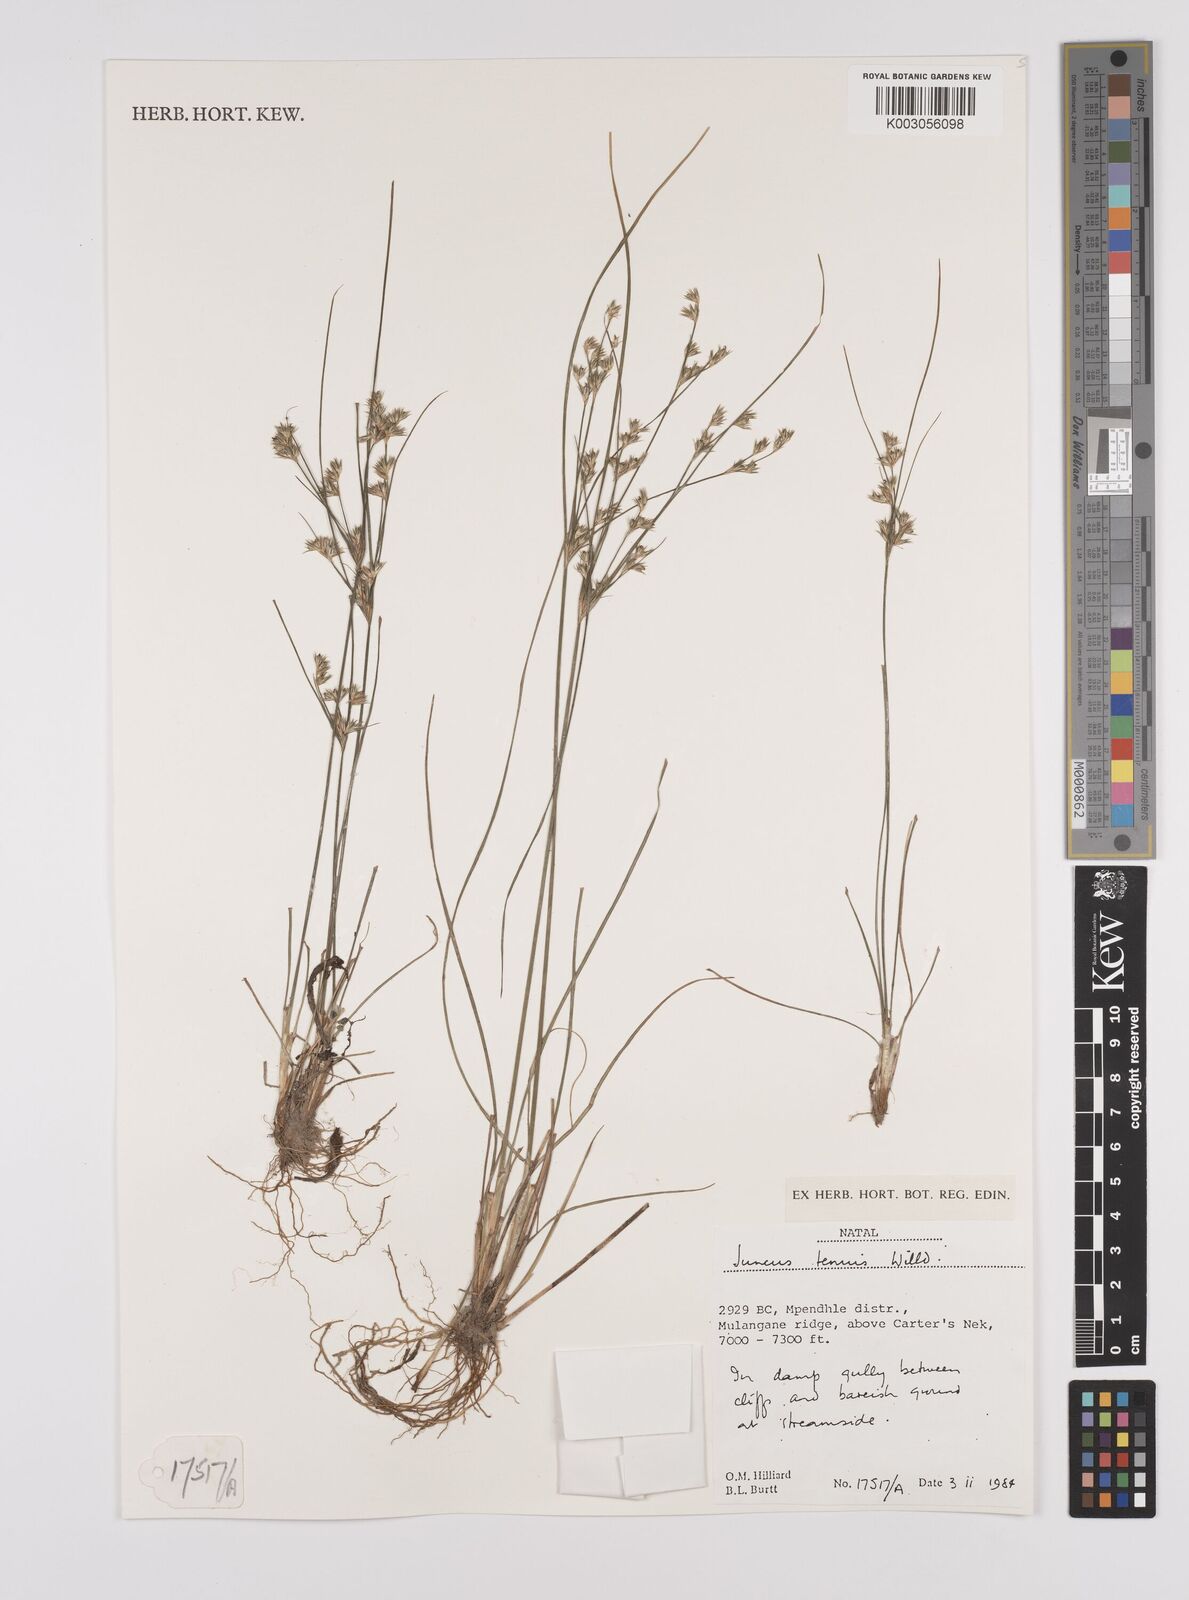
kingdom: Plantae
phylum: Tracheophyta
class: Liliopsida
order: Poales
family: Juncaceae
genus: Juncus
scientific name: Juncus tenuis
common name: Slender rush
